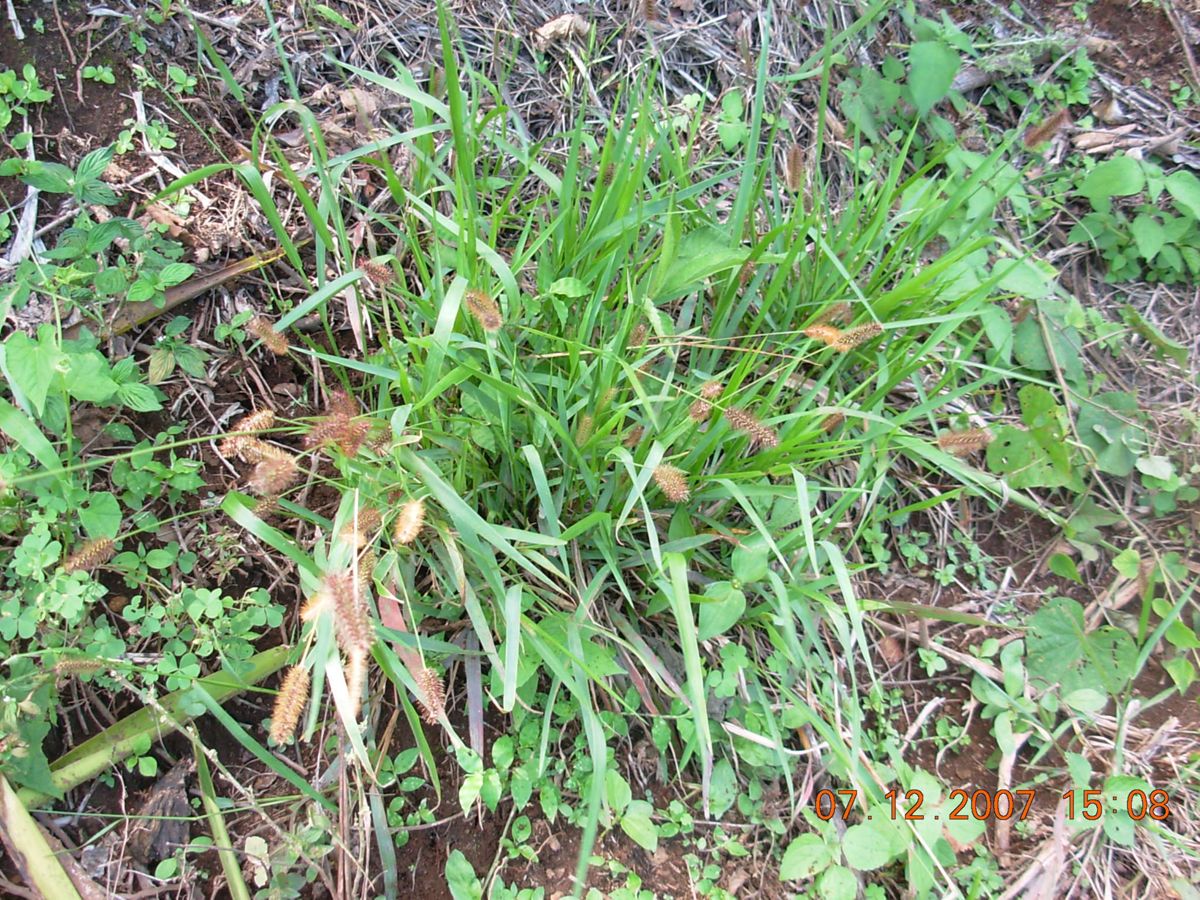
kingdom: Plantae
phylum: Tracheophyta
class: Liliopsida
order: Poales
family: Poaceae
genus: Setaria
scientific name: Setaria parviflora
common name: Knotroot bristle-grass
